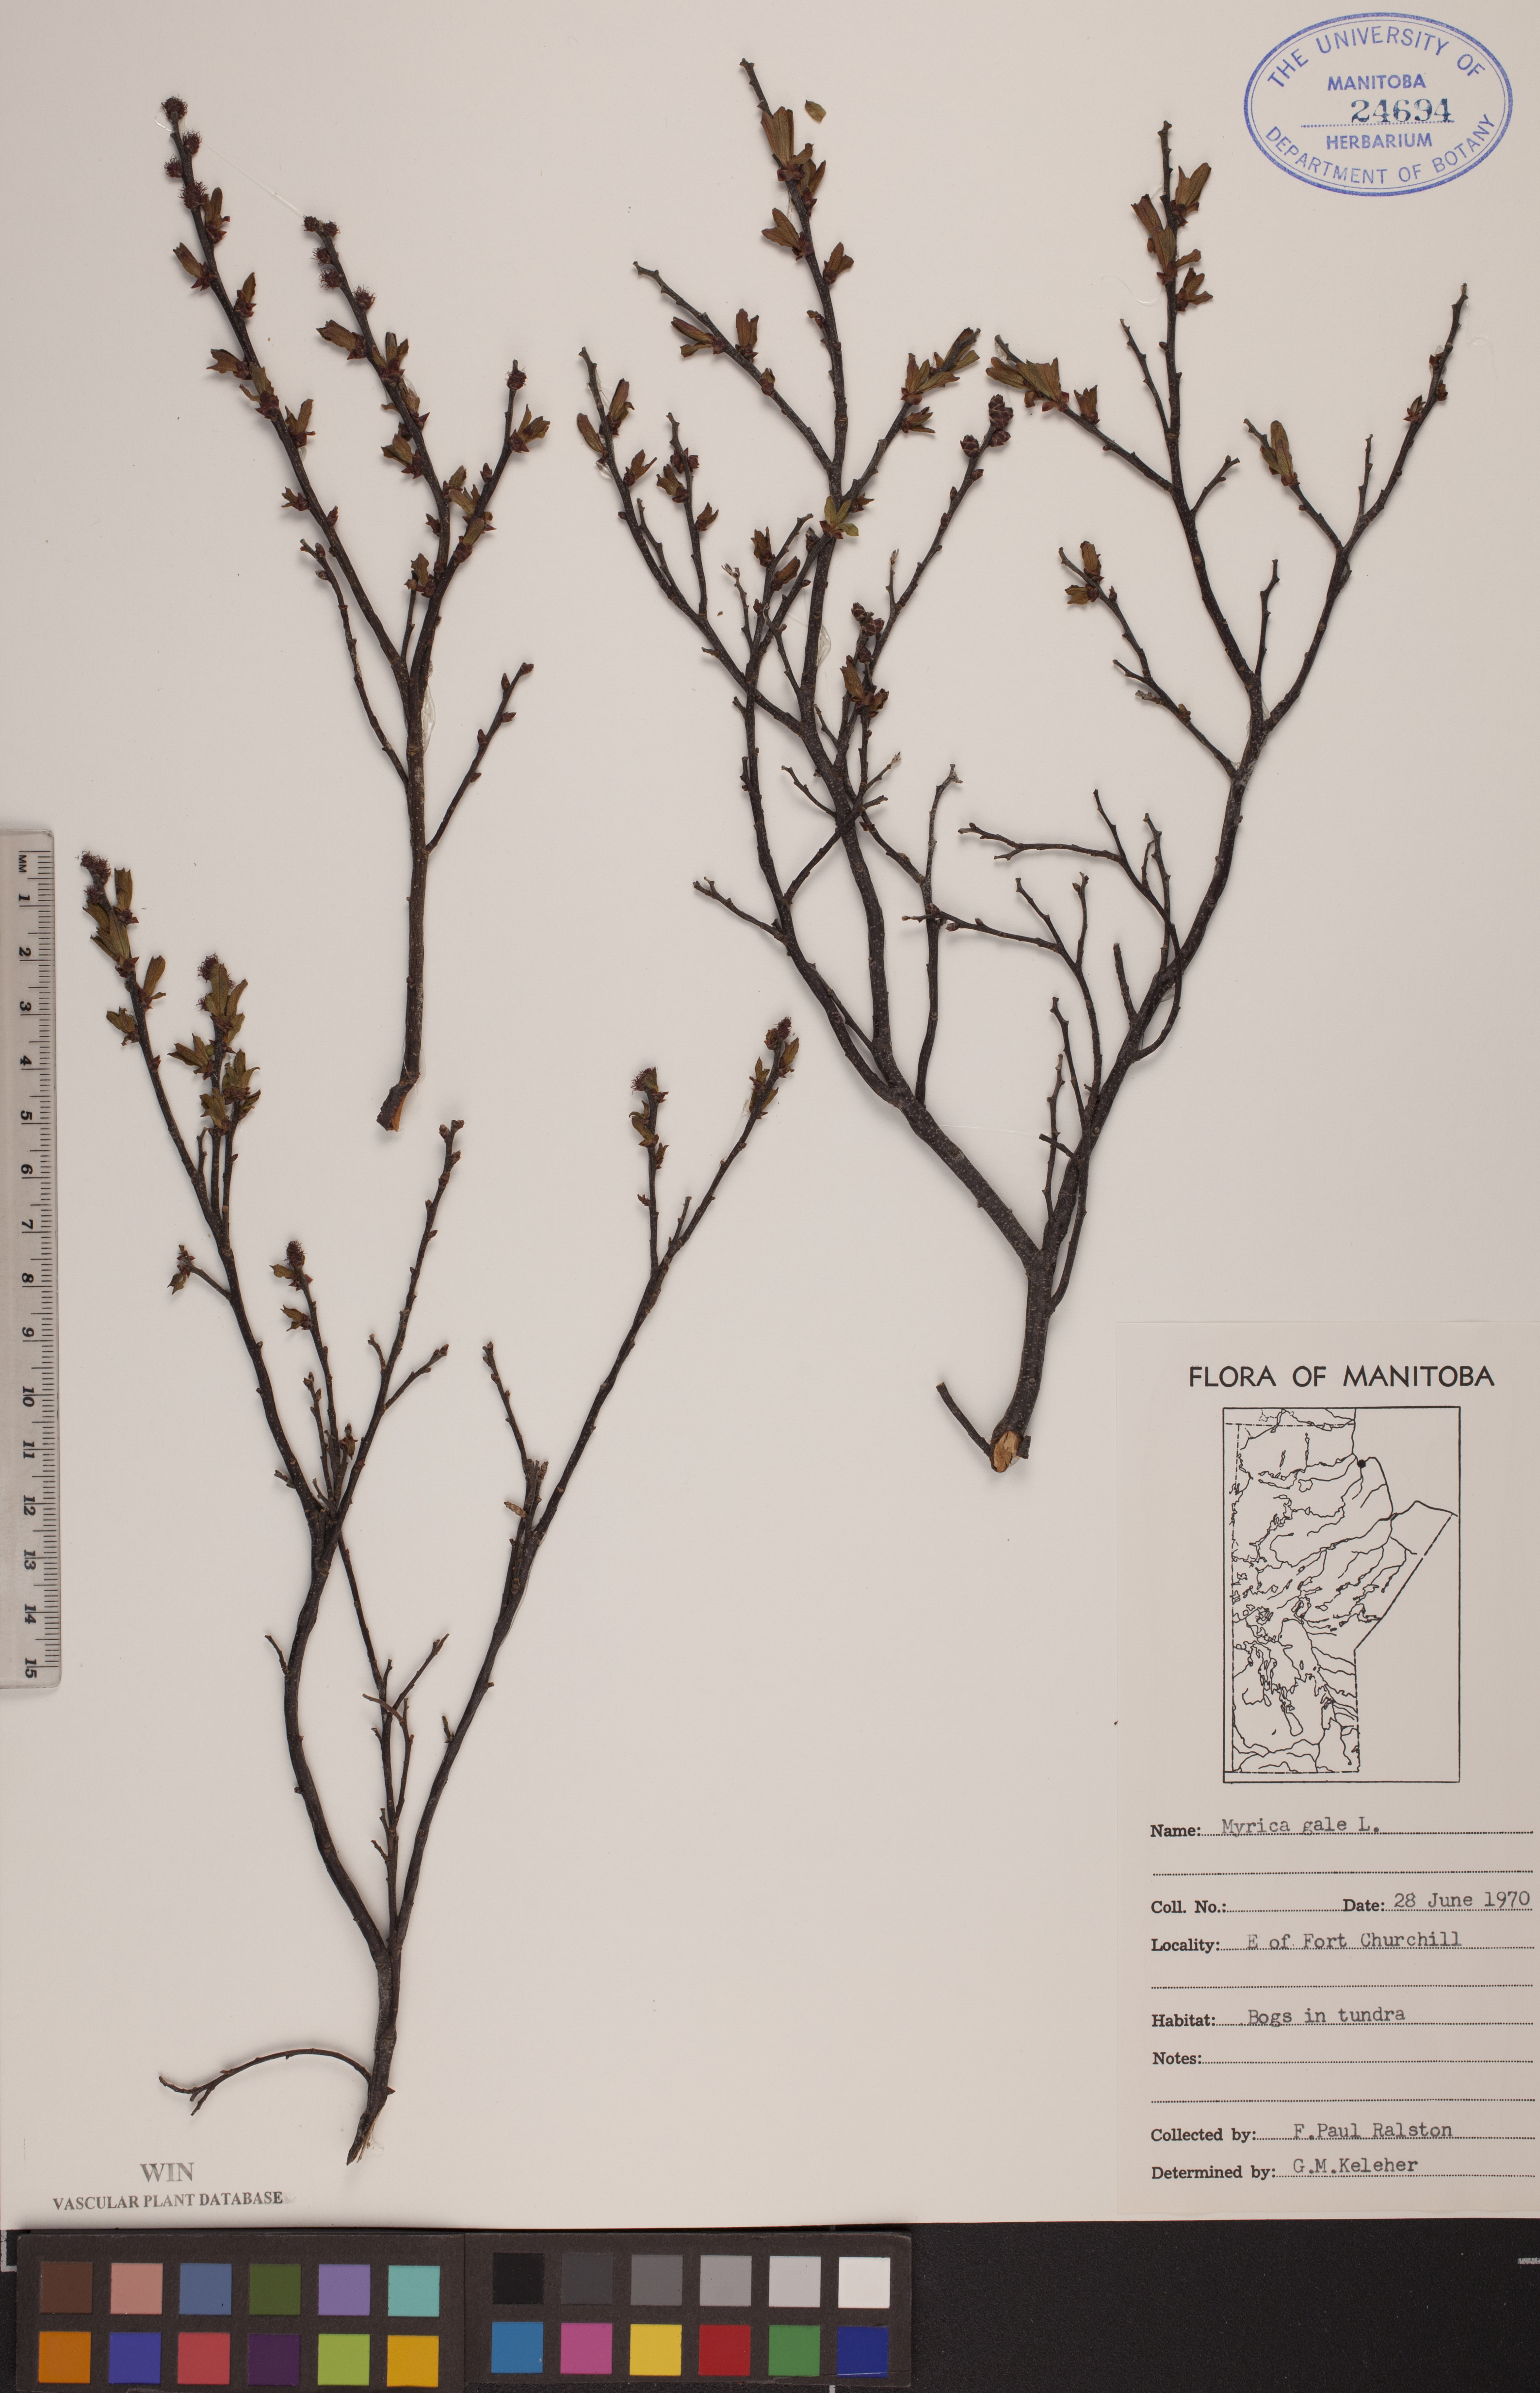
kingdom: Plantae
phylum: Tracheophyta
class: Magnoliopsida
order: Fagales
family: Myricaceae
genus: Myrica
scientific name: Myrica gale
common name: Sweet gale
